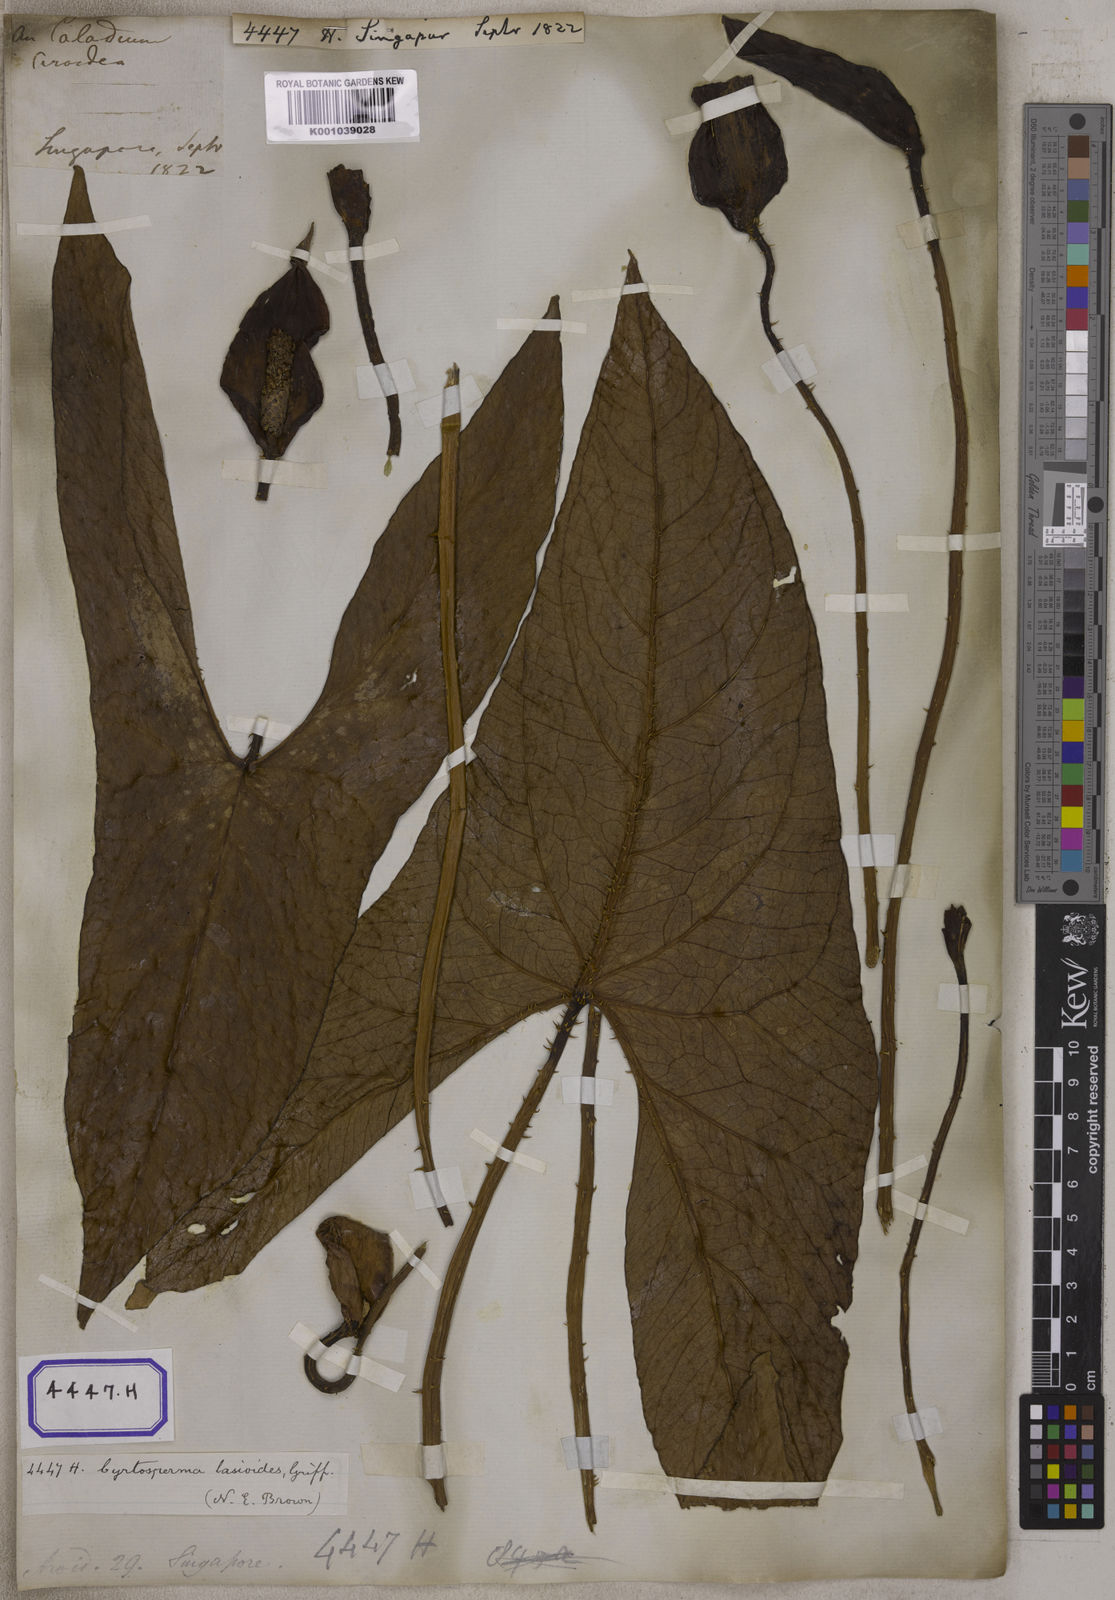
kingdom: Plantae
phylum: Tracheophyta
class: Liliopsida
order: Alismatales
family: Araceae
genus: Lasia
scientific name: Lasia spinosa
